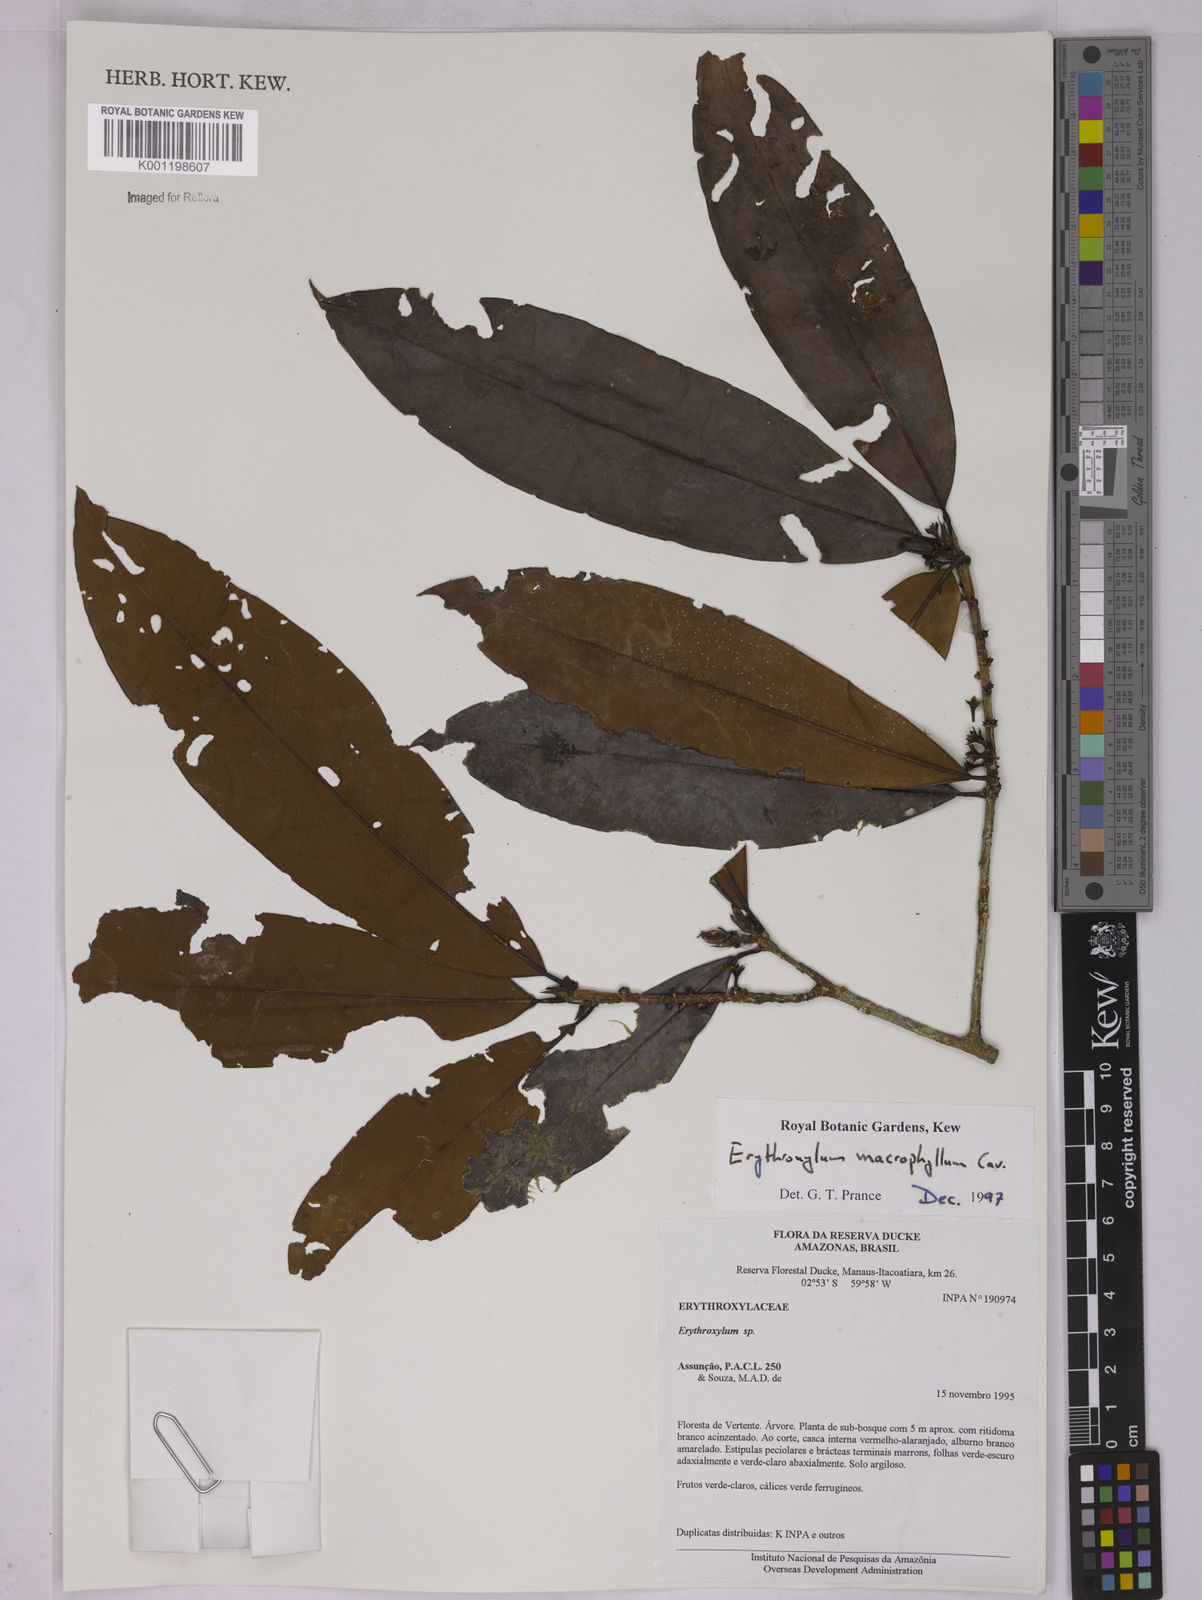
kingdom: Plantae
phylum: Tracheophyta
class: Magnoliopsida
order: Malpighiales
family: Erythroxylaceae
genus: Erythroxylum
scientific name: Erythroxylum macrophyllum
